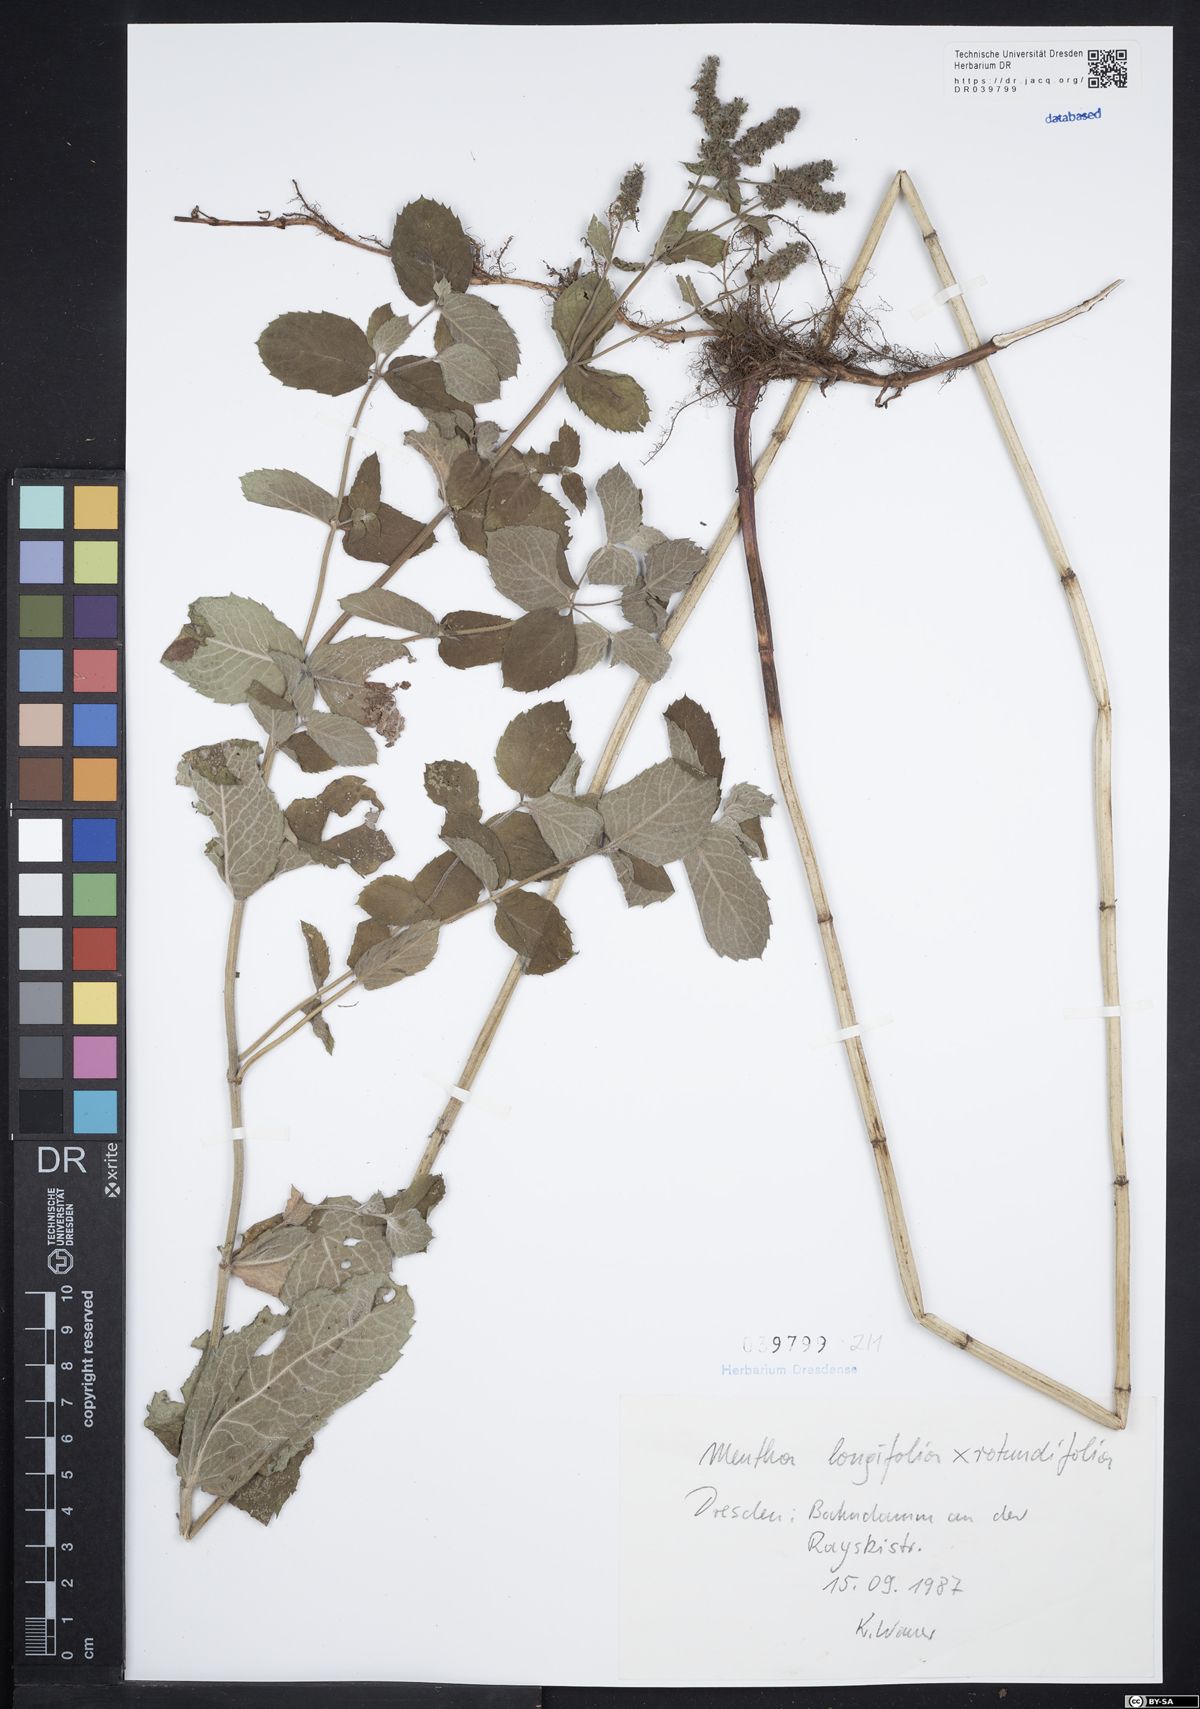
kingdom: Plantae
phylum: Tracheophyta
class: Magnoliopsida
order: Lamiales
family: Lamiaceae
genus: Mentha
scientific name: Mentha longifolia
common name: Horse mint
